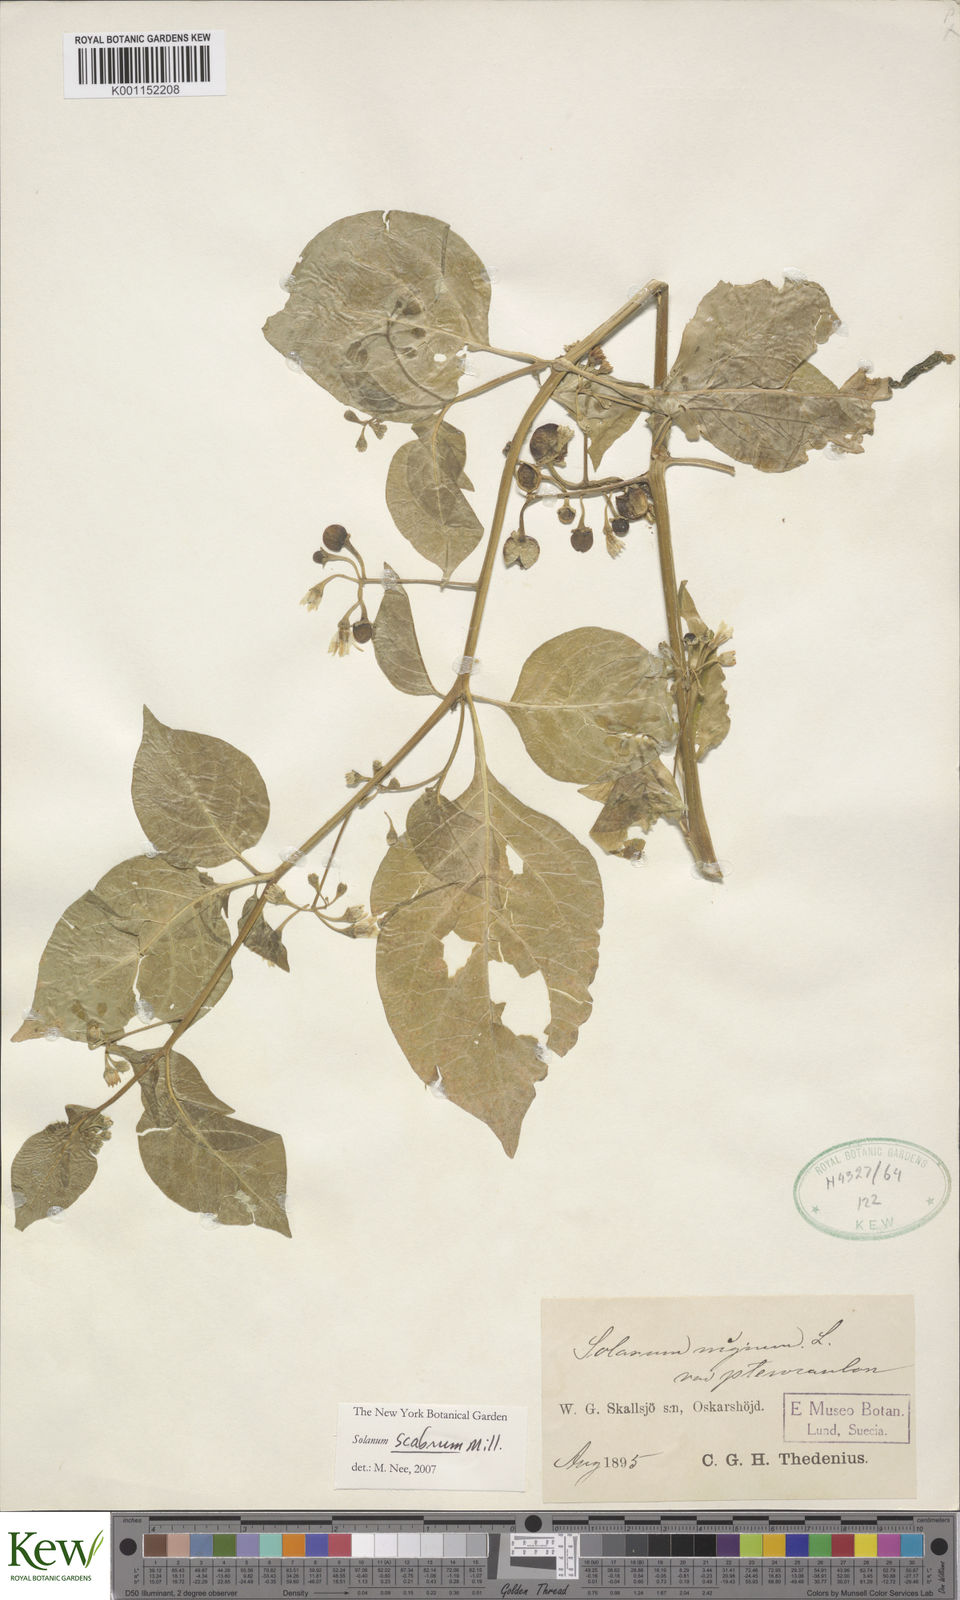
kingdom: Plantae
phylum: Tracheophyta
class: Magnoliopsida
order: Solanales
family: Solanaceae
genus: Solanum
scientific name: Solanum scabrum
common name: Garden-huckleberry
